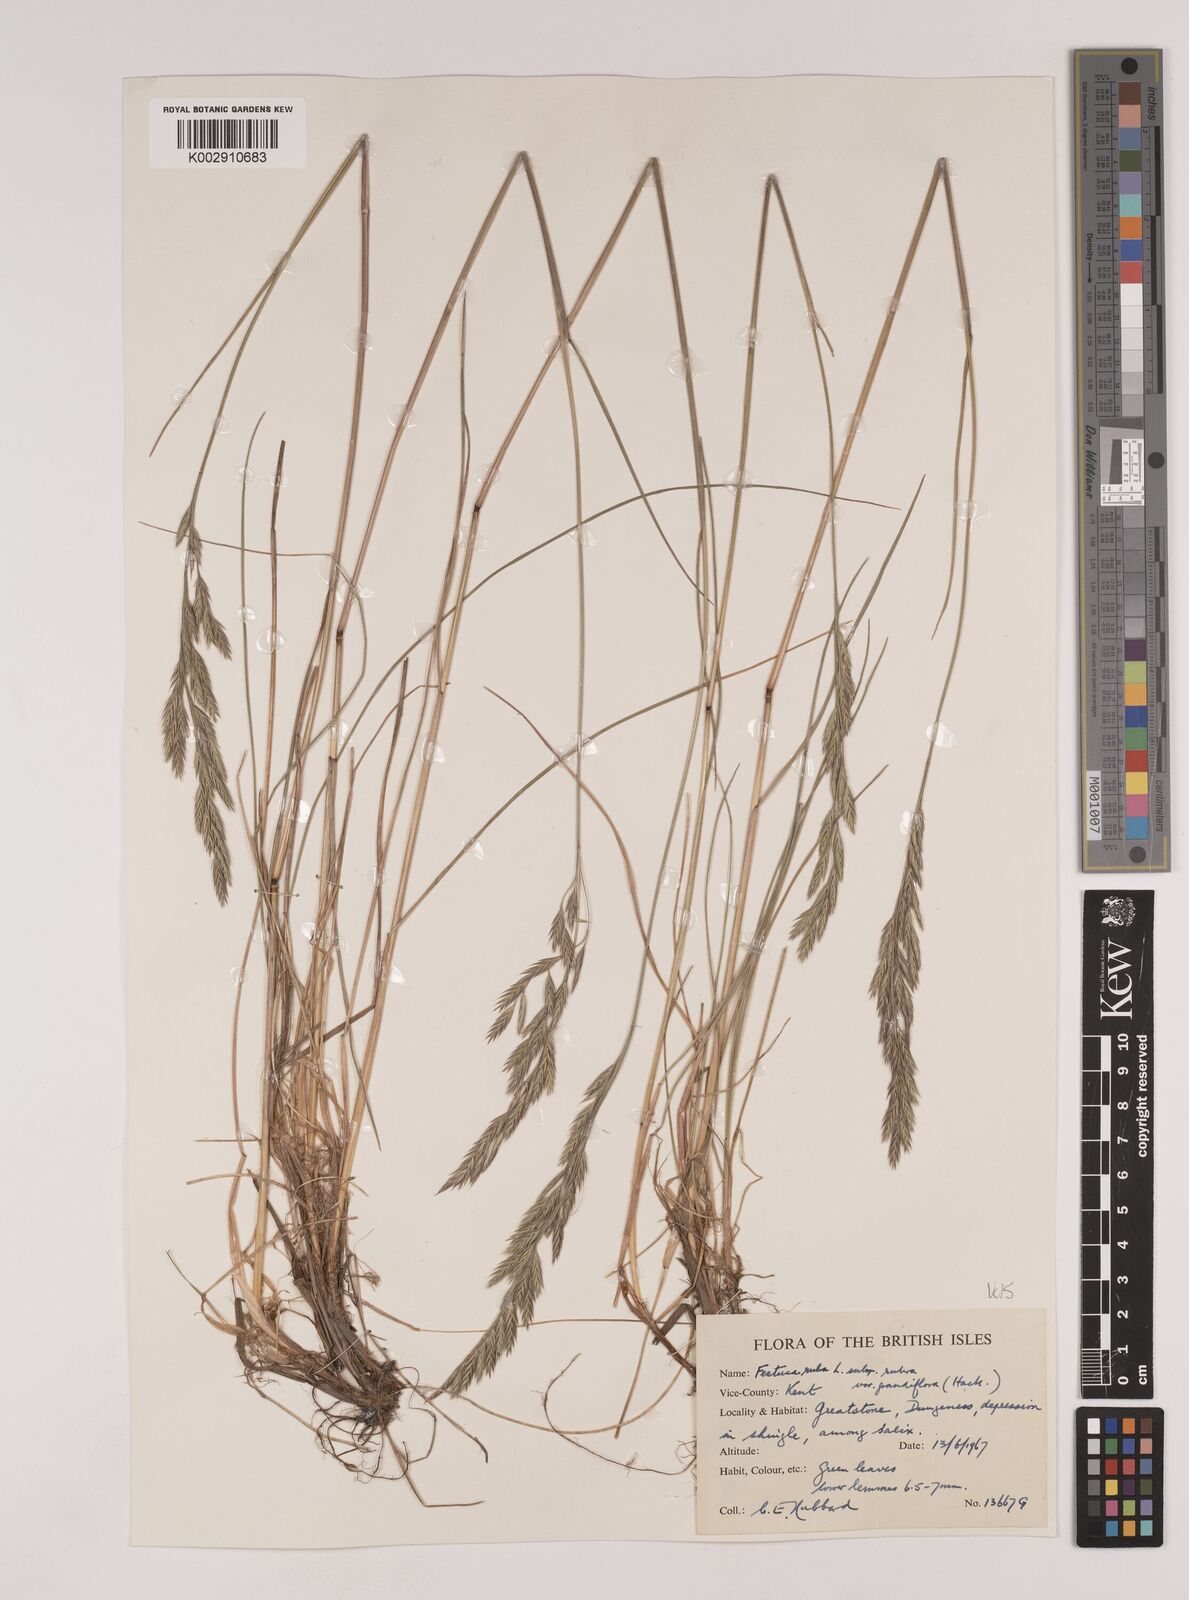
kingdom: Plantae
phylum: Tracheophyta
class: Liliopsida
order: Poales
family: Poaceae
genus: Festuca
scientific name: Festuca rubra
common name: Red fescue
